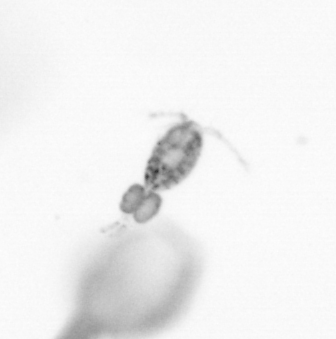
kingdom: Animalia
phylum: Arthropoda
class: Copepoda
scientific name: Copepoda
